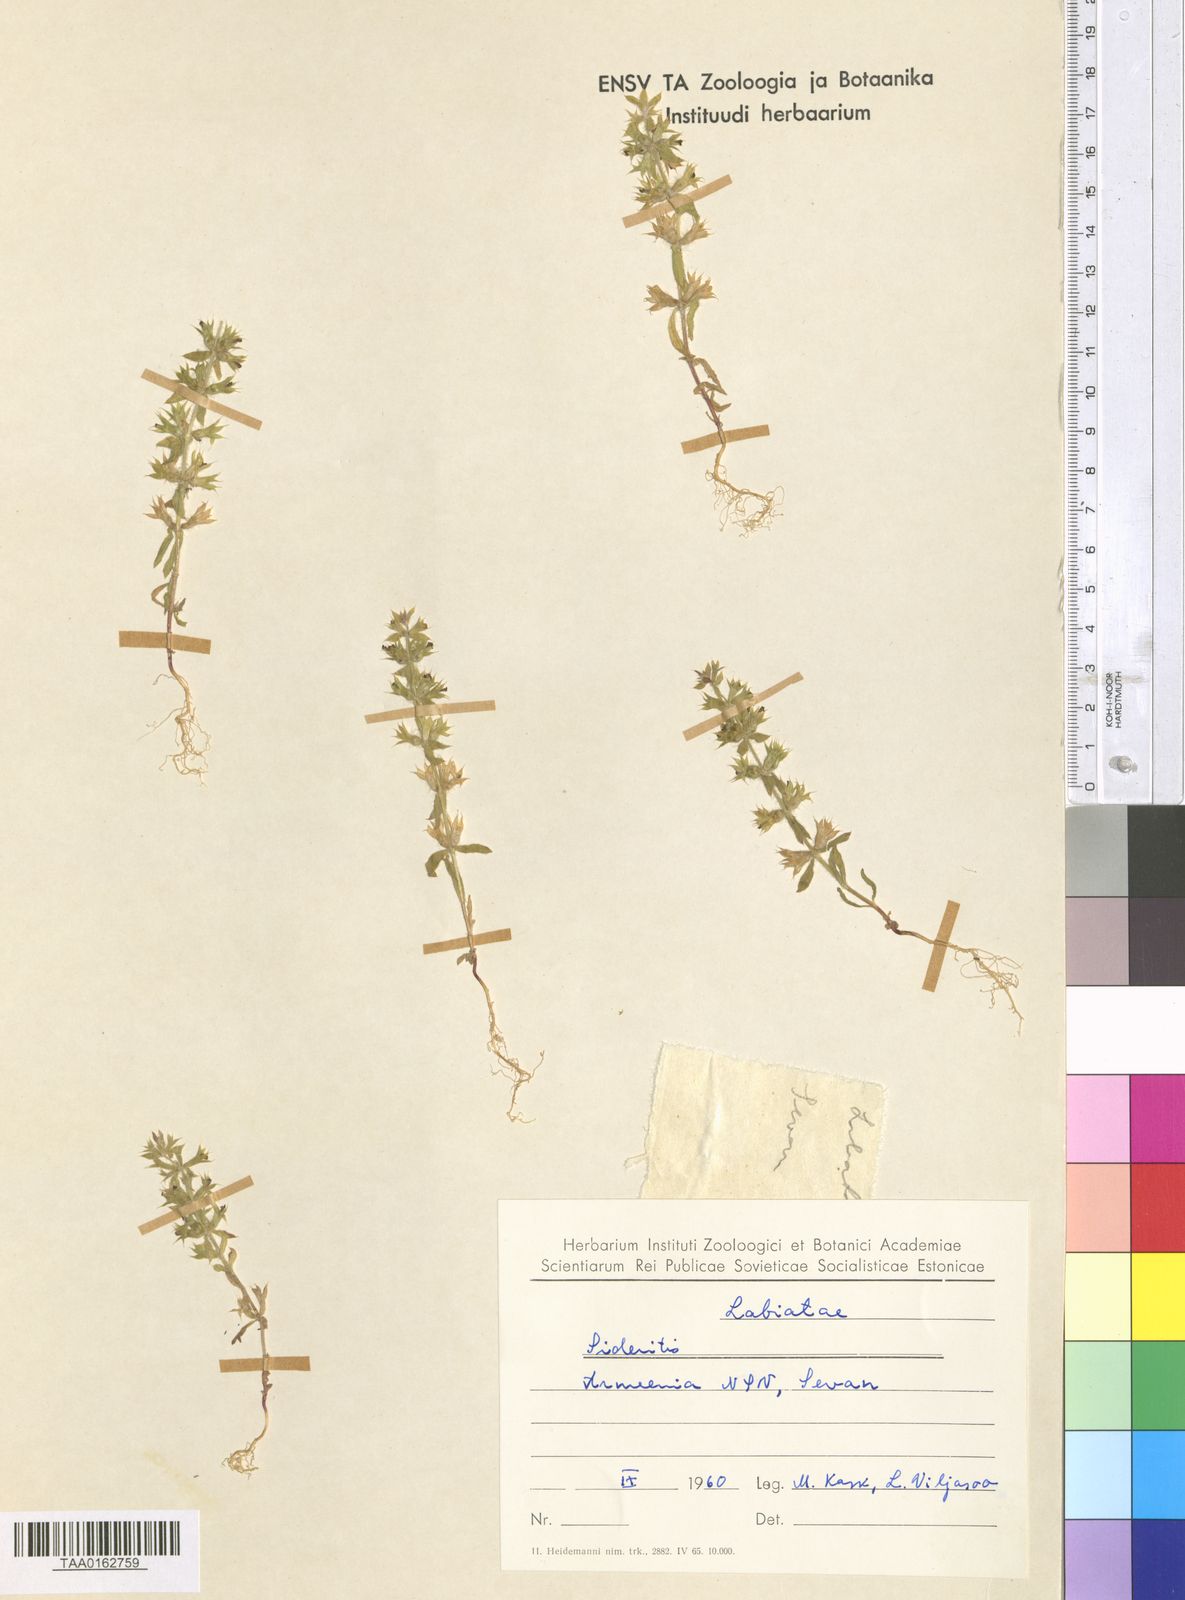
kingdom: Plantae
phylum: Tracheophyta
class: Magnoliopsida
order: Lamiales
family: Lamiaceae
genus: Sideritis
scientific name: Sideritis
